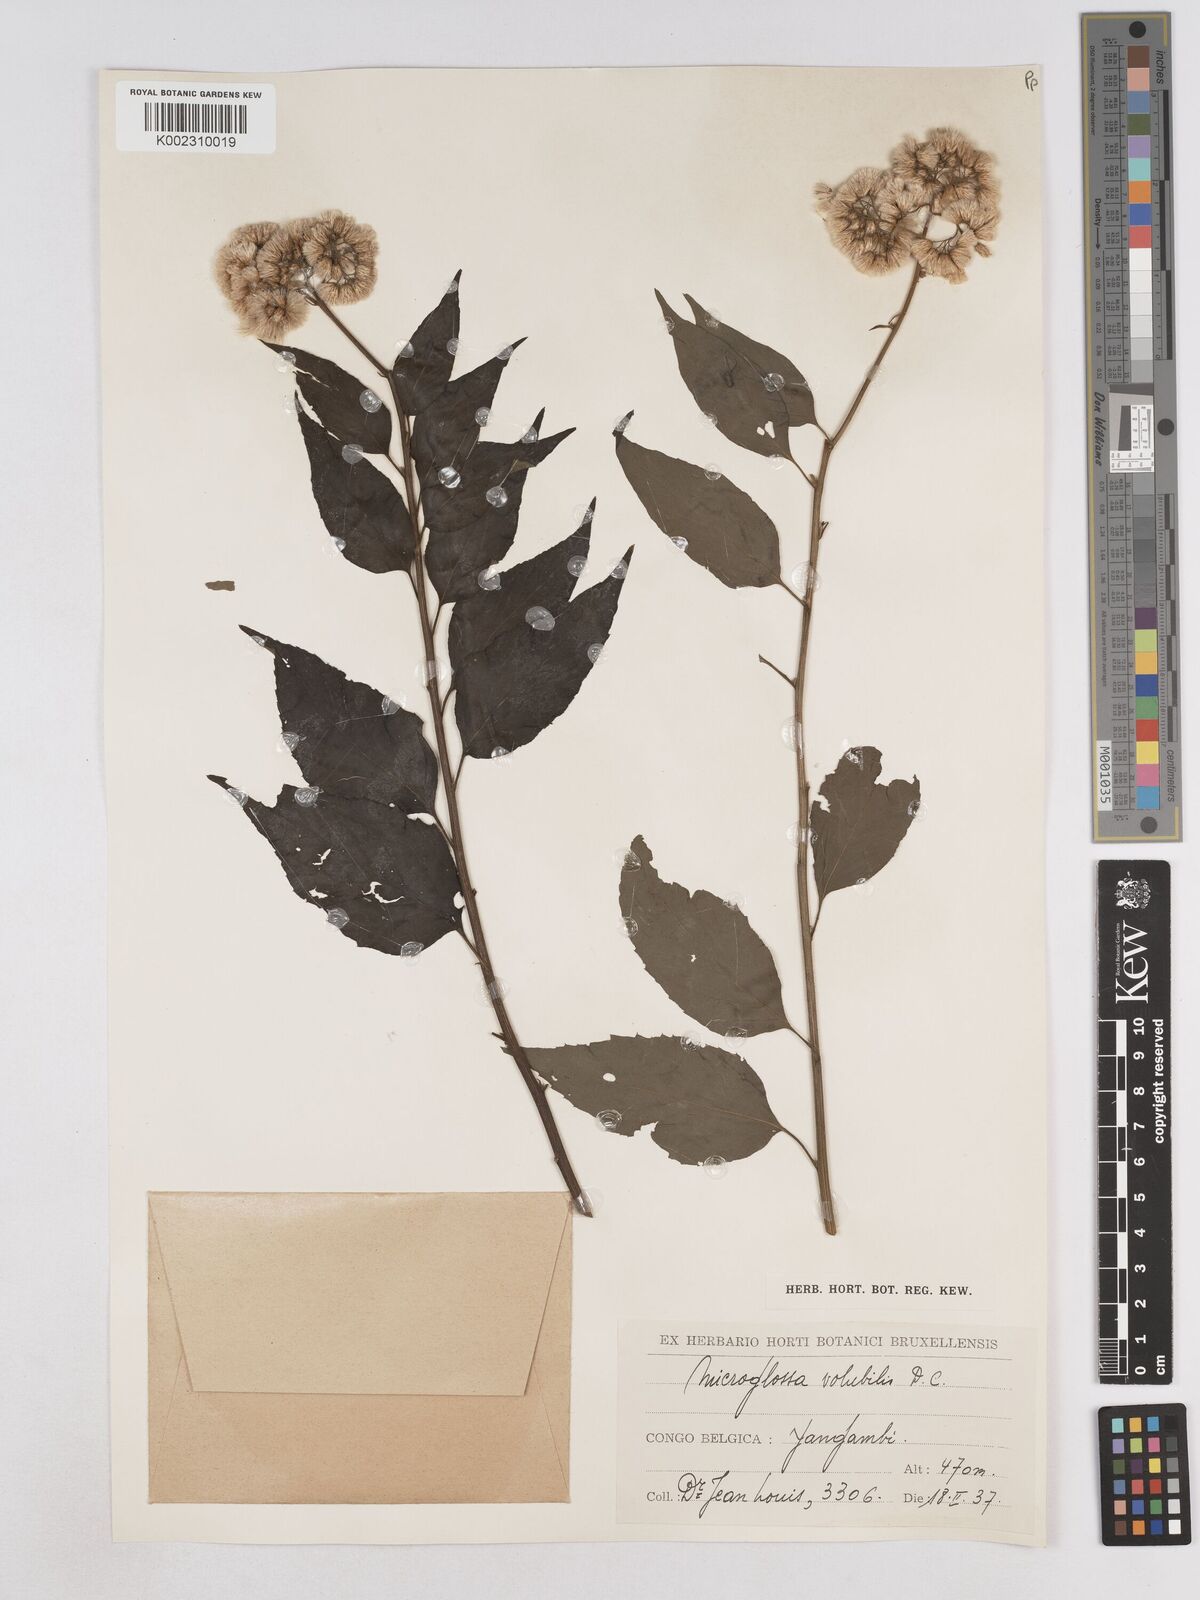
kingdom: Plantae
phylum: Tracheophyta
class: Magnoliopsida
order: Asterales
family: Asteraceae
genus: Microglossa
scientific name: Microglossa pyrifolia
